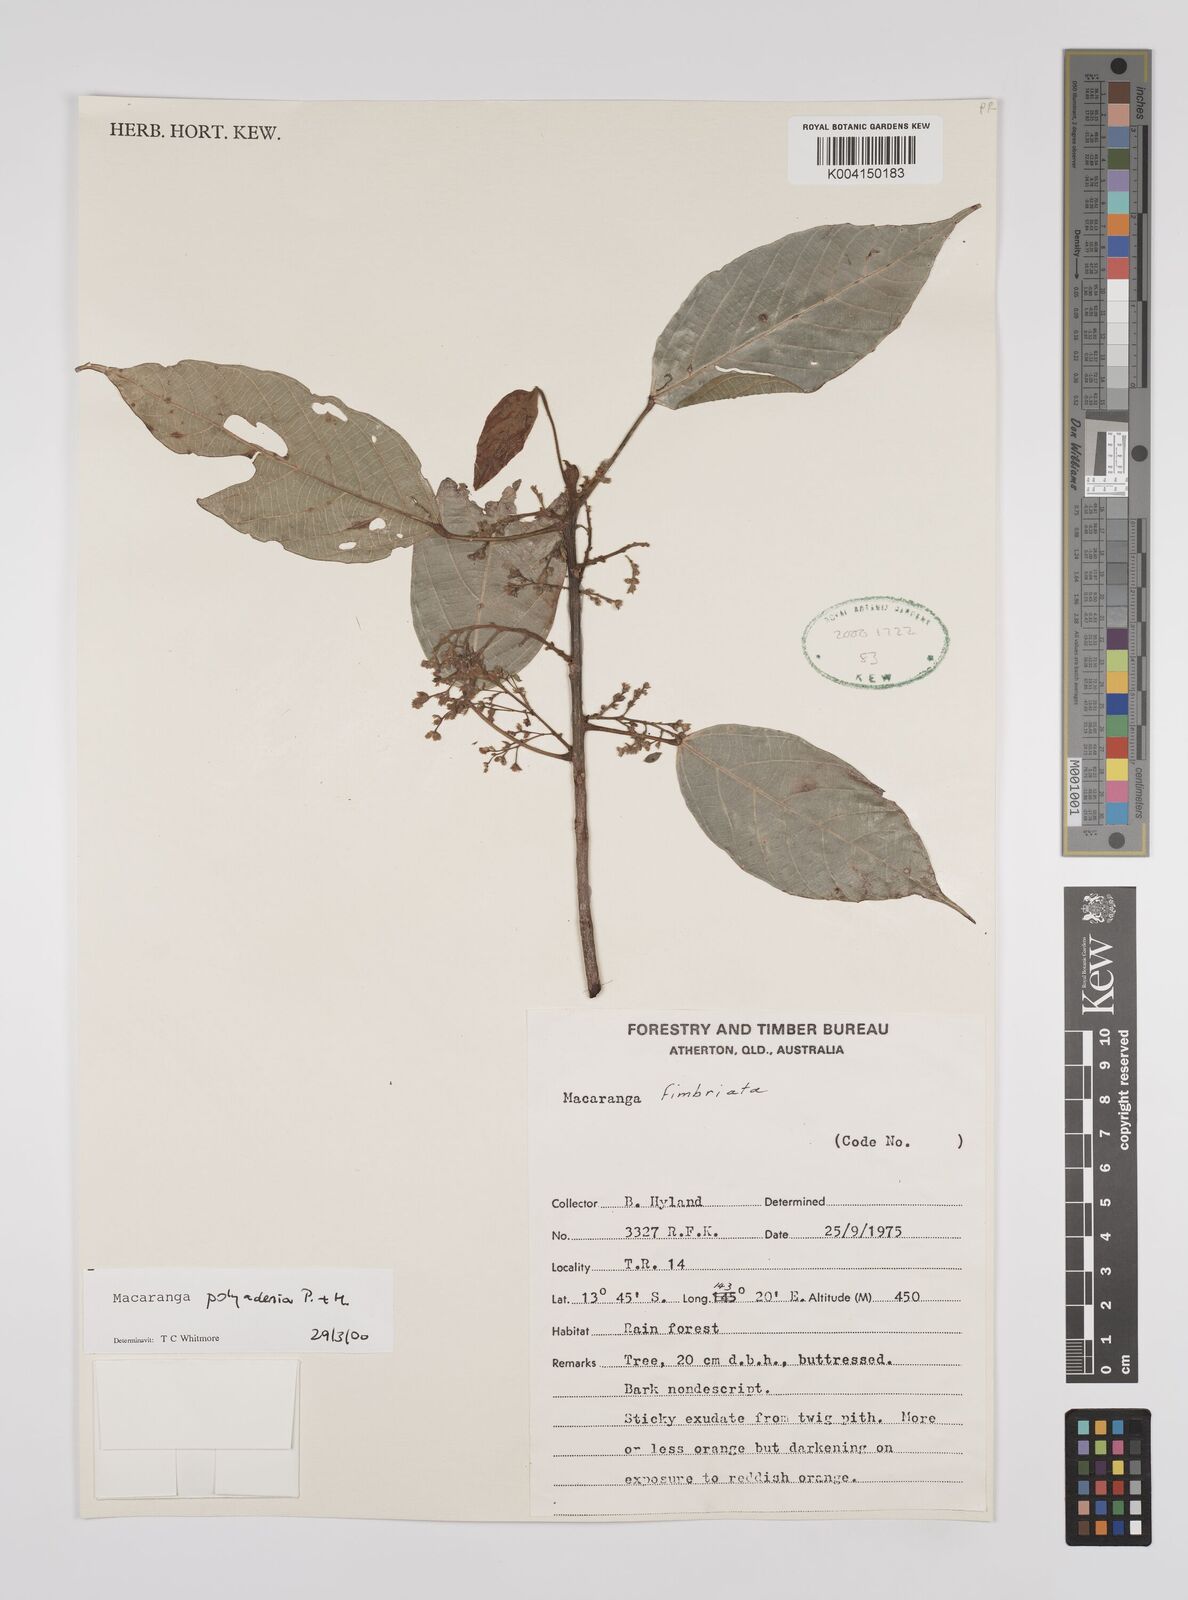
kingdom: Plantae
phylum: Tracheophyta
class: Magnoliopsida
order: Malpighiales
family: Euphorbiaceae
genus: Macaranga
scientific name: Macaranga polyadenia
